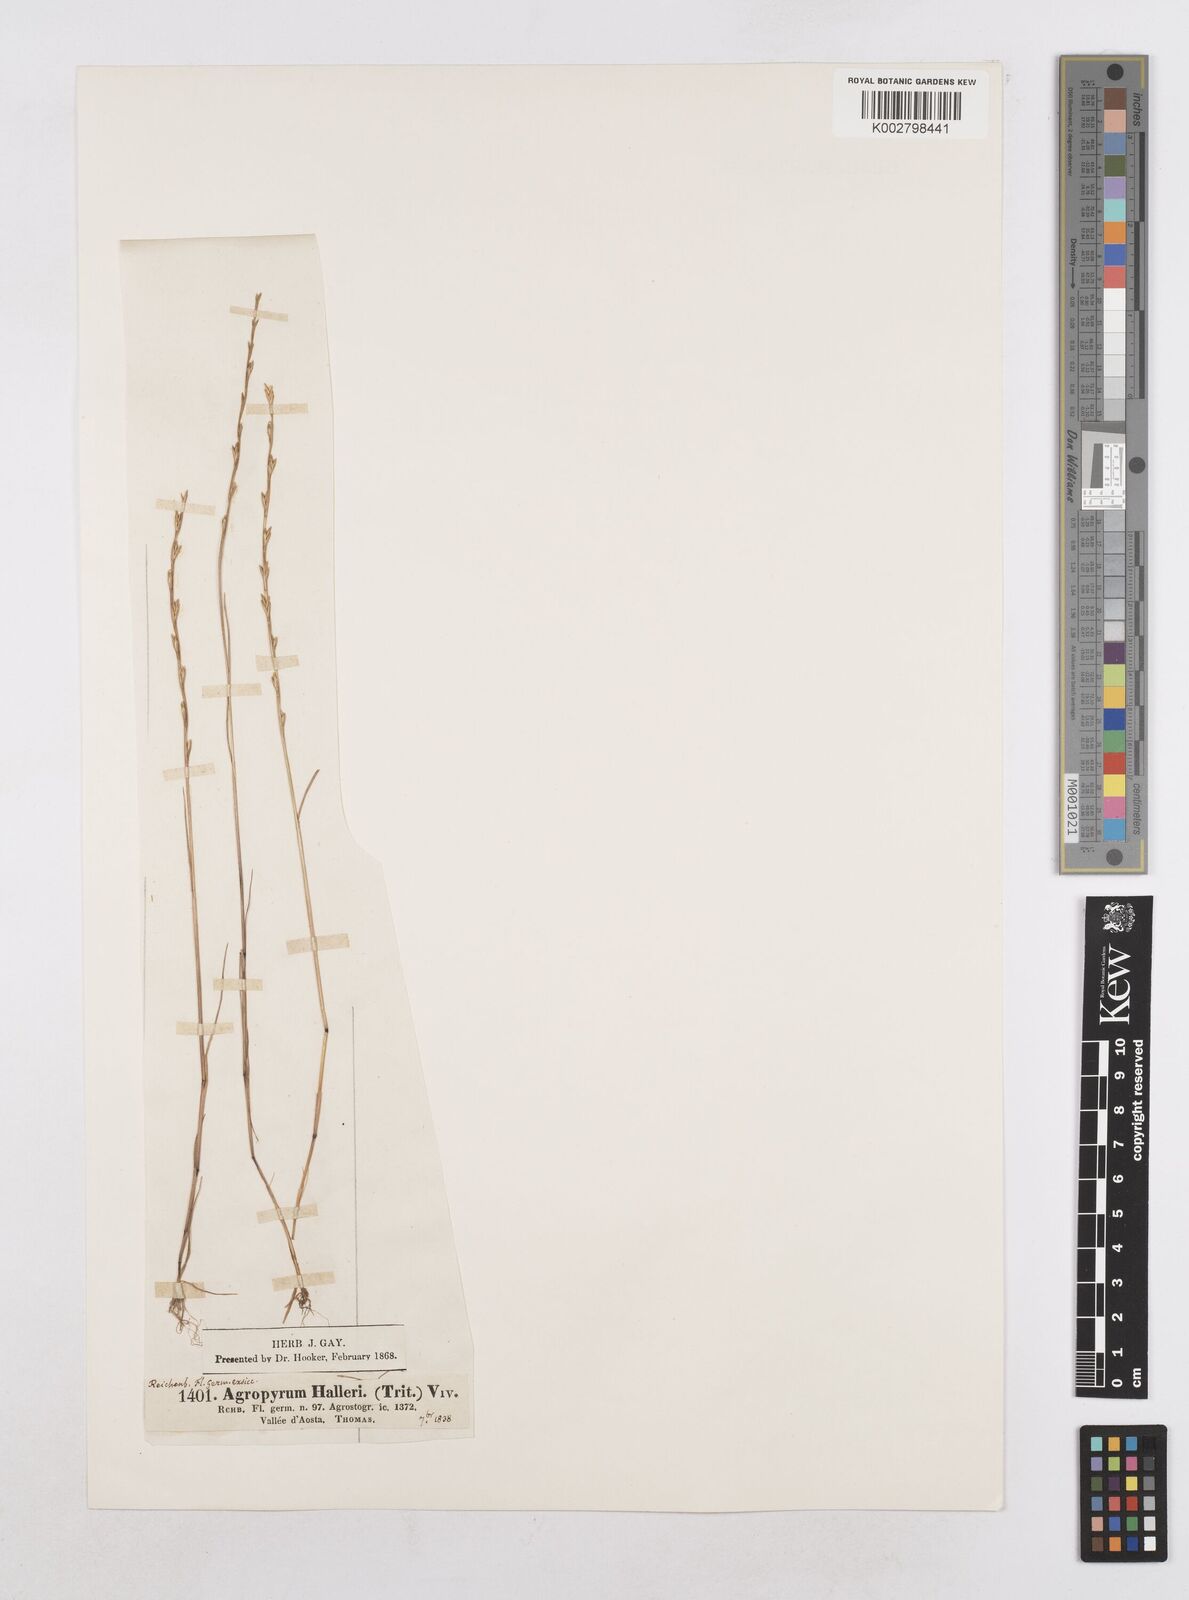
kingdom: Plantae
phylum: Tracheophyta
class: Liliopsida
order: Poales
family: Poaceae
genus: Festuca
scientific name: Festuca lachenalii
